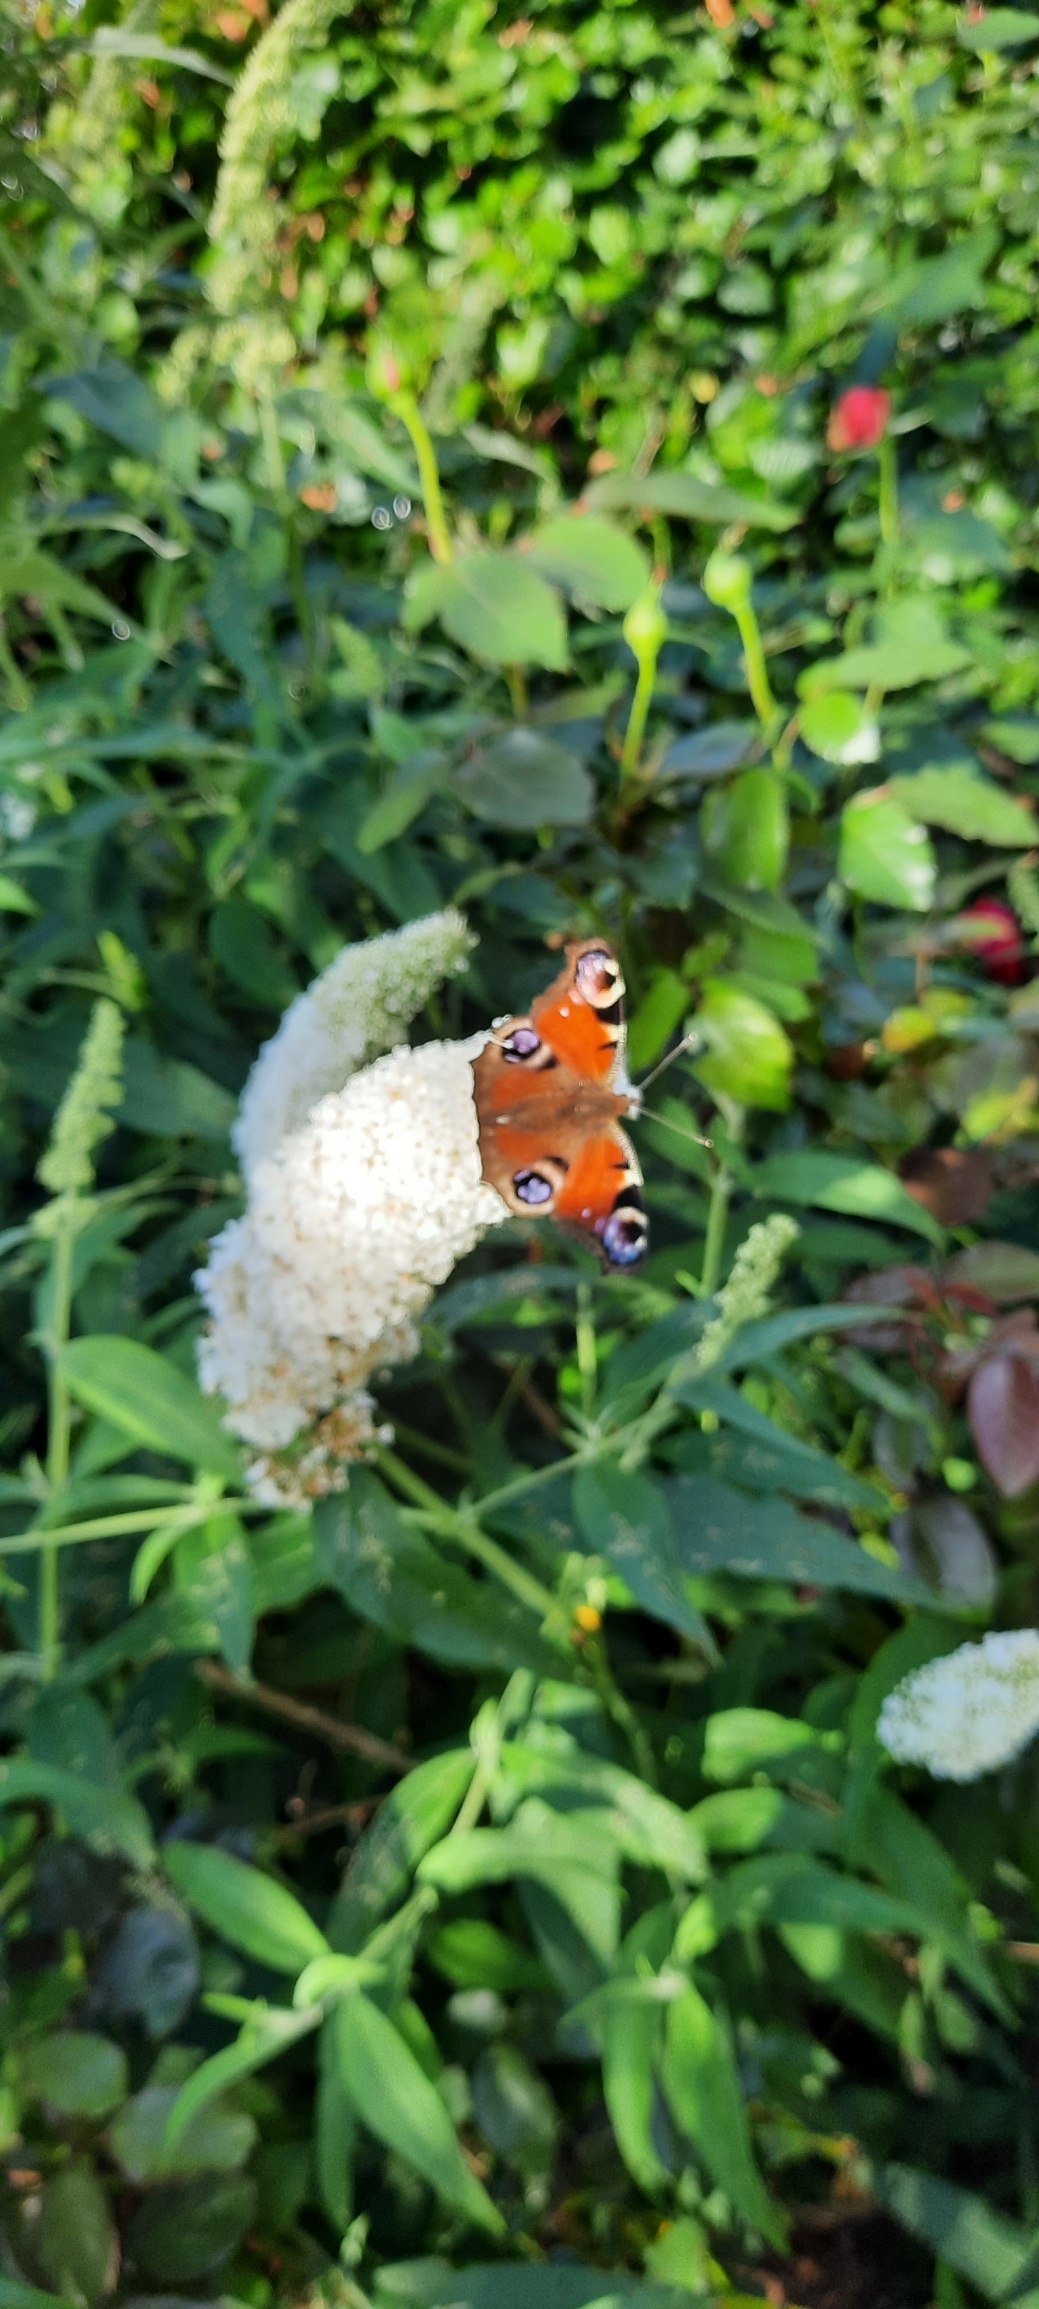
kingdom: Animalia
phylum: Arthropoda
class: Insecta
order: Lepidoptera
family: Nymphalidae
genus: Aglais
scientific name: Aglais io
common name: Dagpåfugleøje
